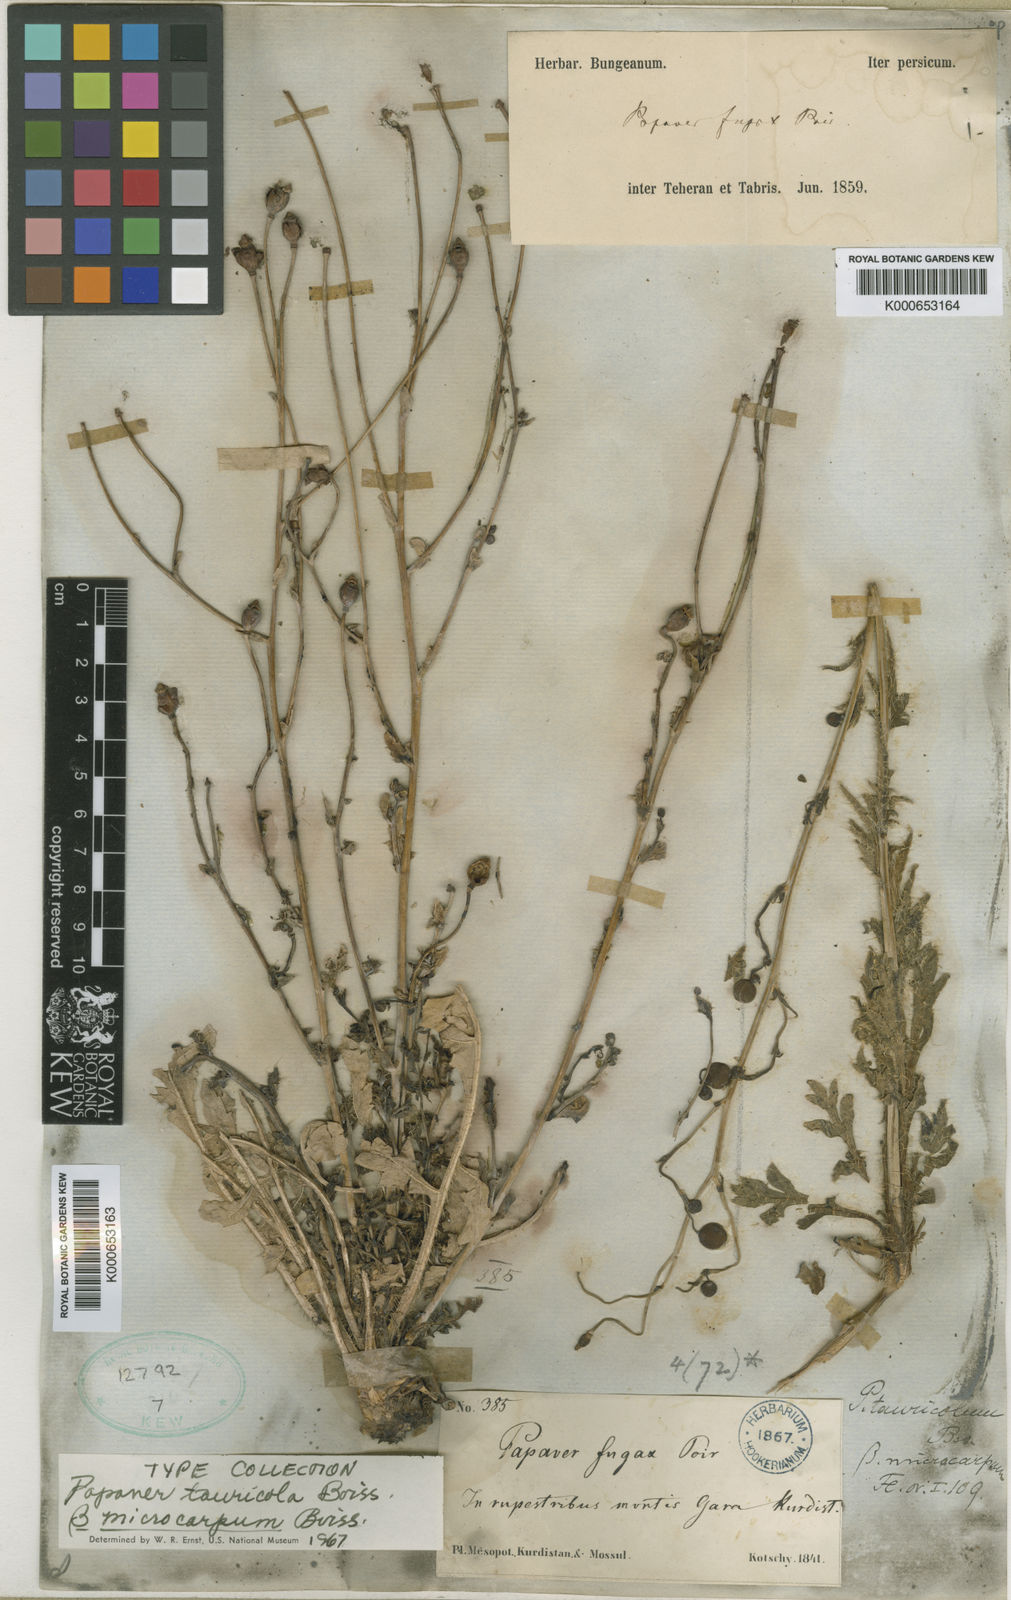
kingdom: Plantae
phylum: Tracheophyta
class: Magnoliopsida
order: Ranunculales
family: Papaveraceae
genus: Papaver
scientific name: Papaver acrochaetum
